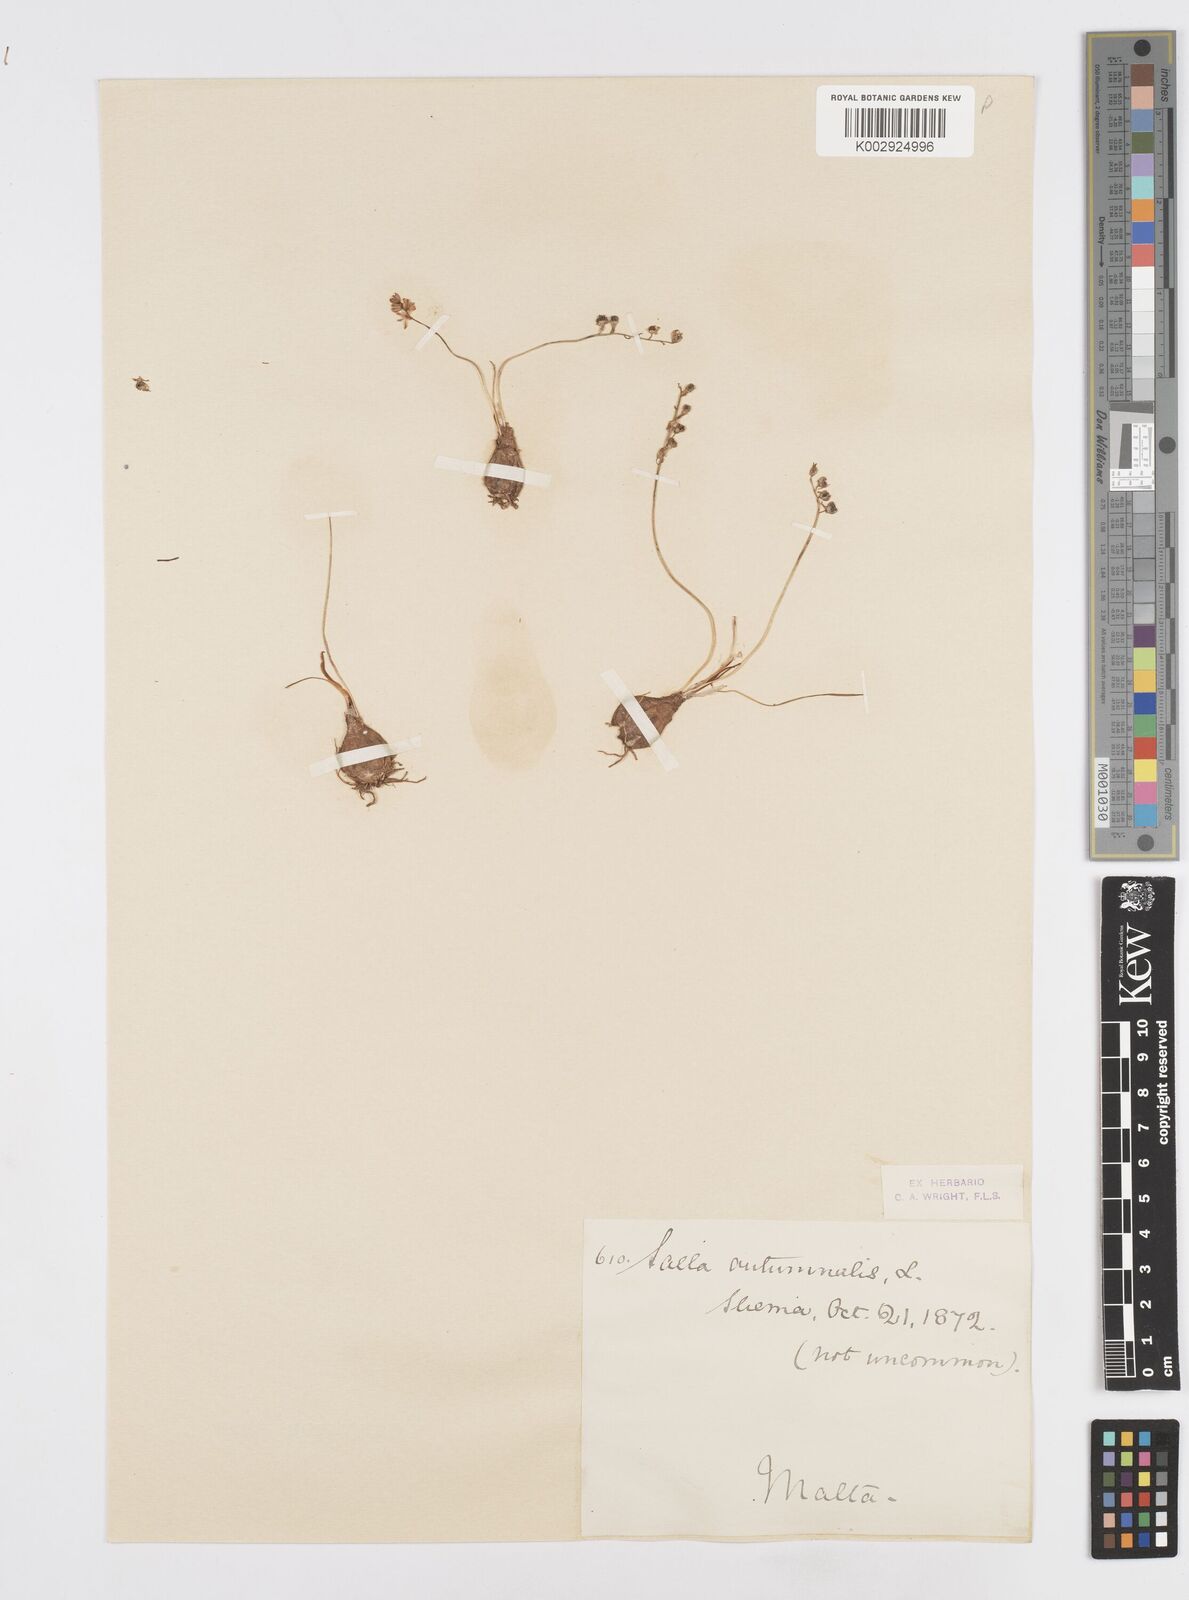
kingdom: Plantae
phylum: Tracheophyta
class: Liliopsida
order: Asparagales
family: Asparagaceae
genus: Prospero
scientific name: Prospero autumnale
